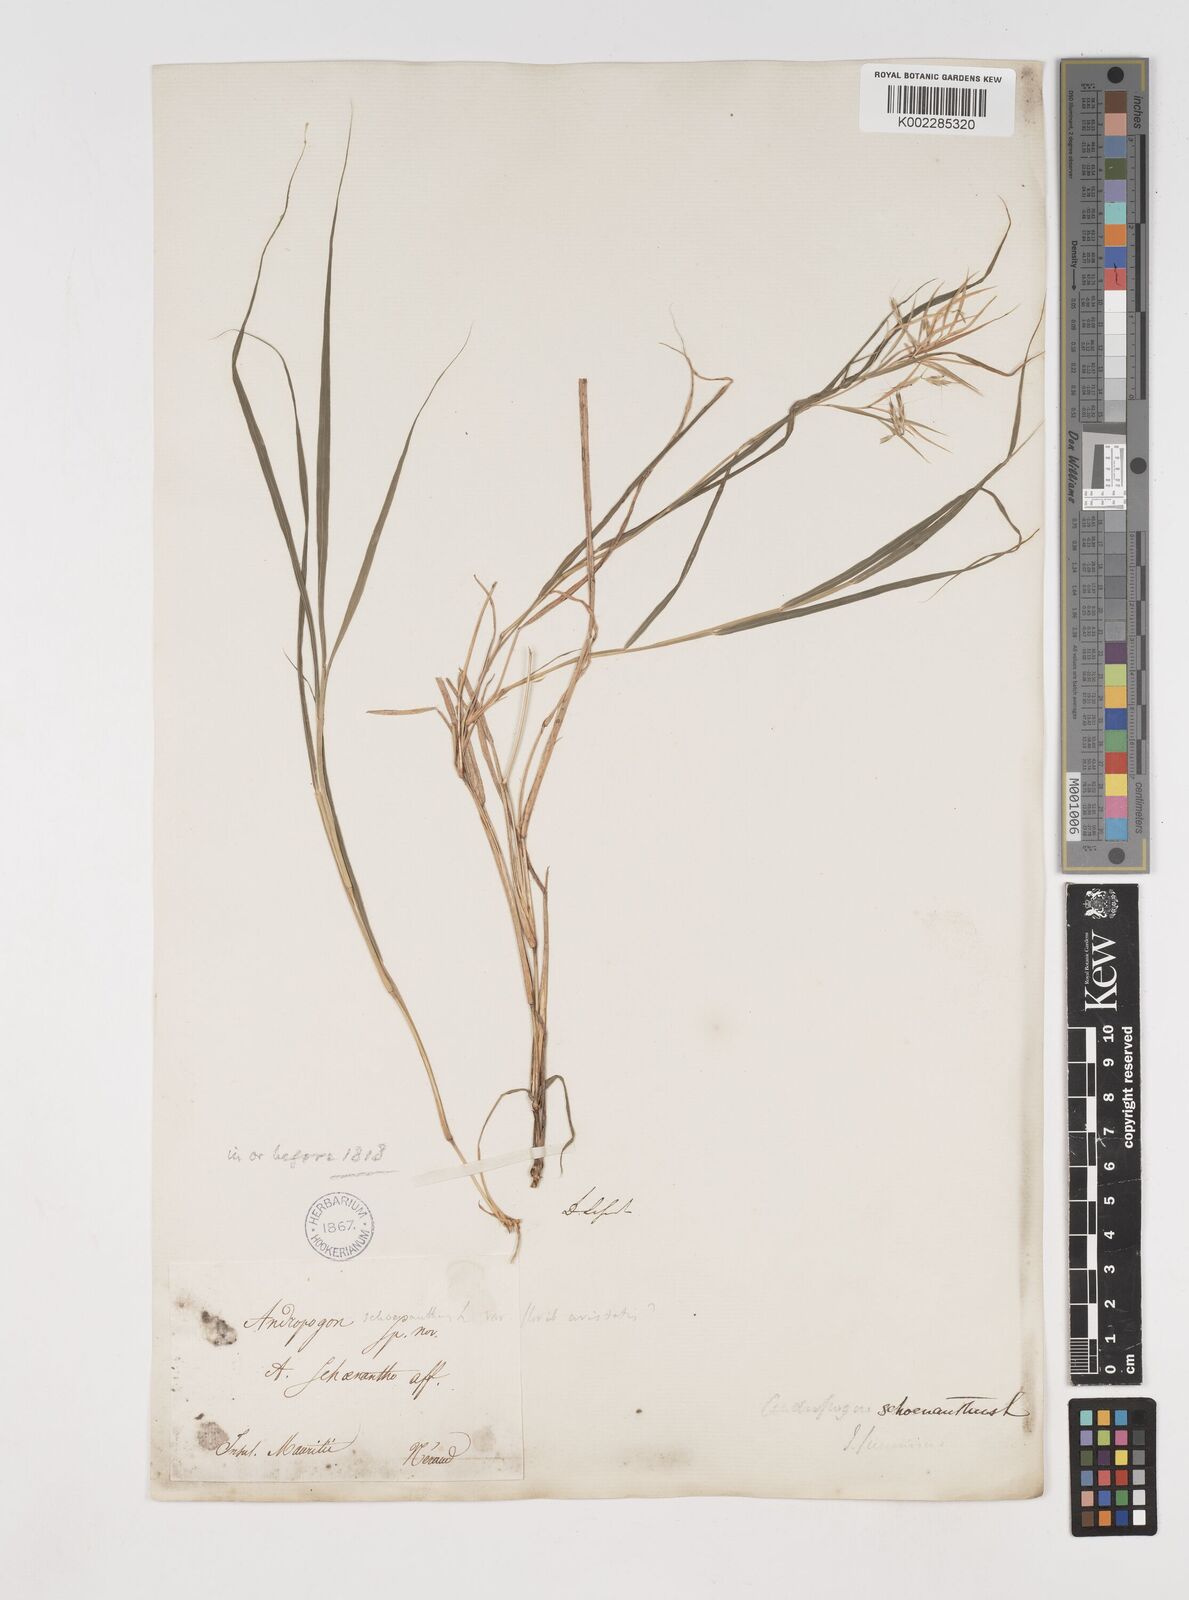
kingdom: Plantae
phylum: Tracheophyta
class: Liliopsida
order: Poales
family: Poaceae
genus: Cymbopogon
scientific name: Cymbopogon pruinosus
